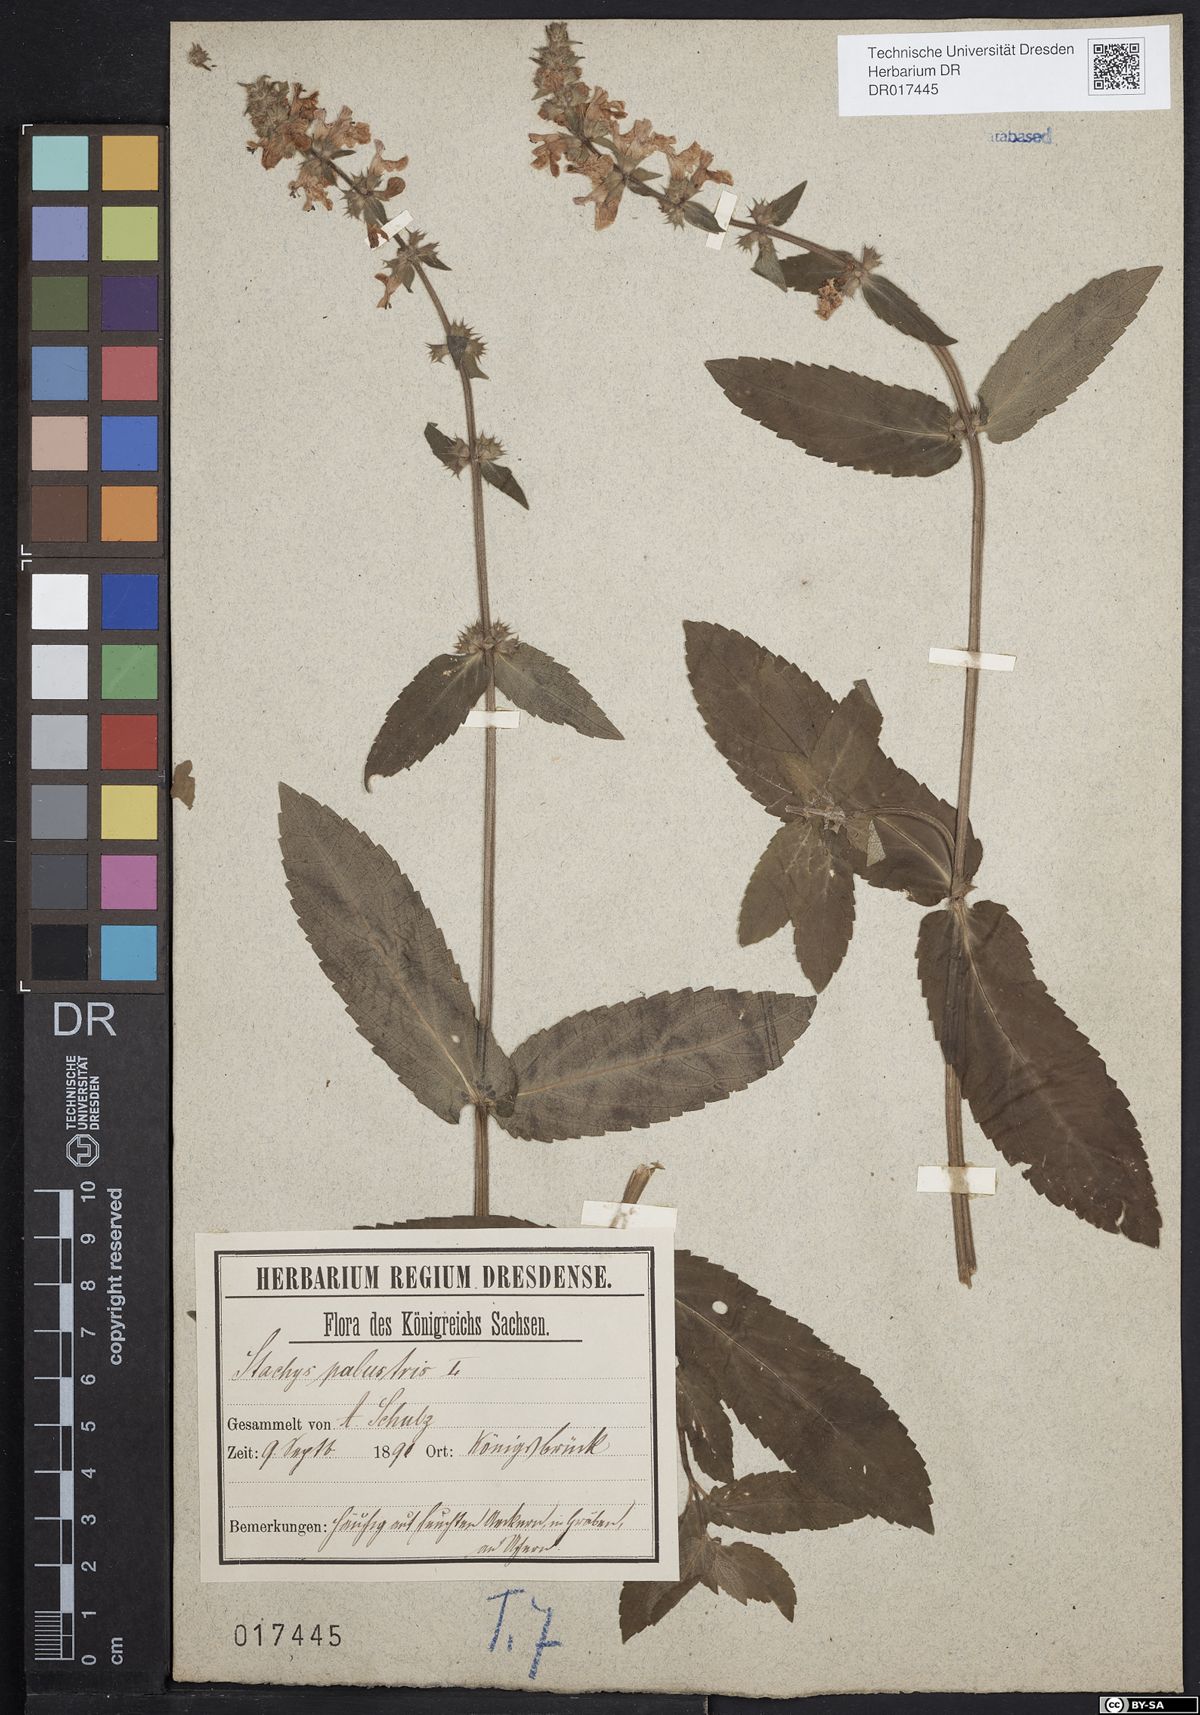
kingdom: Plantae
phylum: Tracheophyta
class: Magnoliopsida
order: Lamiales
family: Lamiaceae
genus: Stachys
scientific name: Stachys palustris
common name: Marsh woundwort
